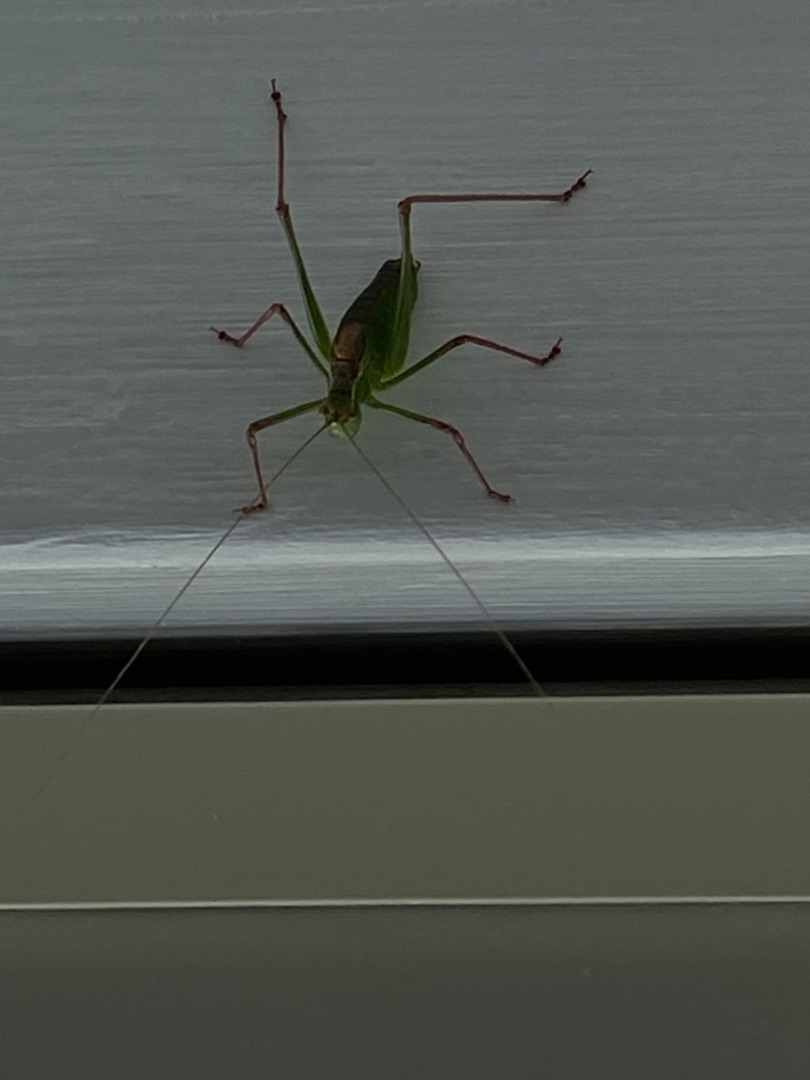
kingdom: Animalia
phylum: Arthropoda
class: Insecta
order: Orthoptera
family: Tettigoniidae
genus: Leptophyes
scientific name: Leptophyes punctatissima
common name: Krumknivgræshoppe
